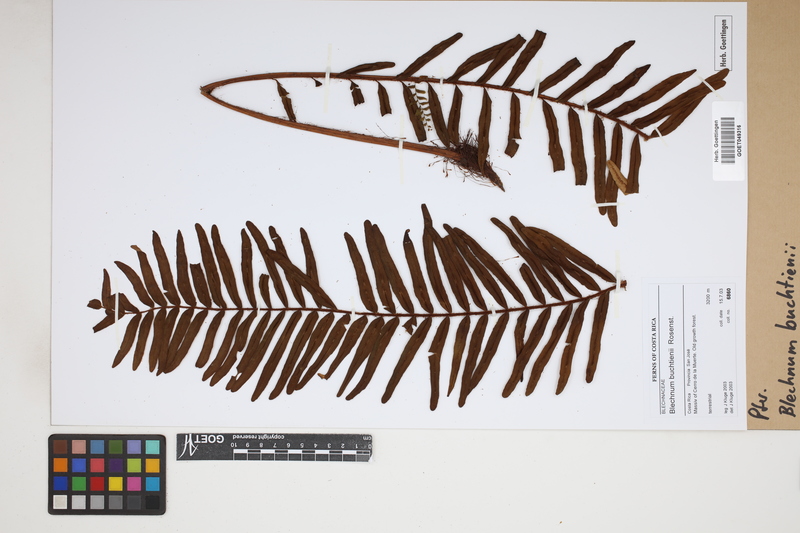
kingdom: Plantae
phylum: Tracheophyta
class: Polypodiopsida
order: Polypodiales
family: Blechnaceae
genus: Lomariocycas
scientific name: Lomariocycas aurata
